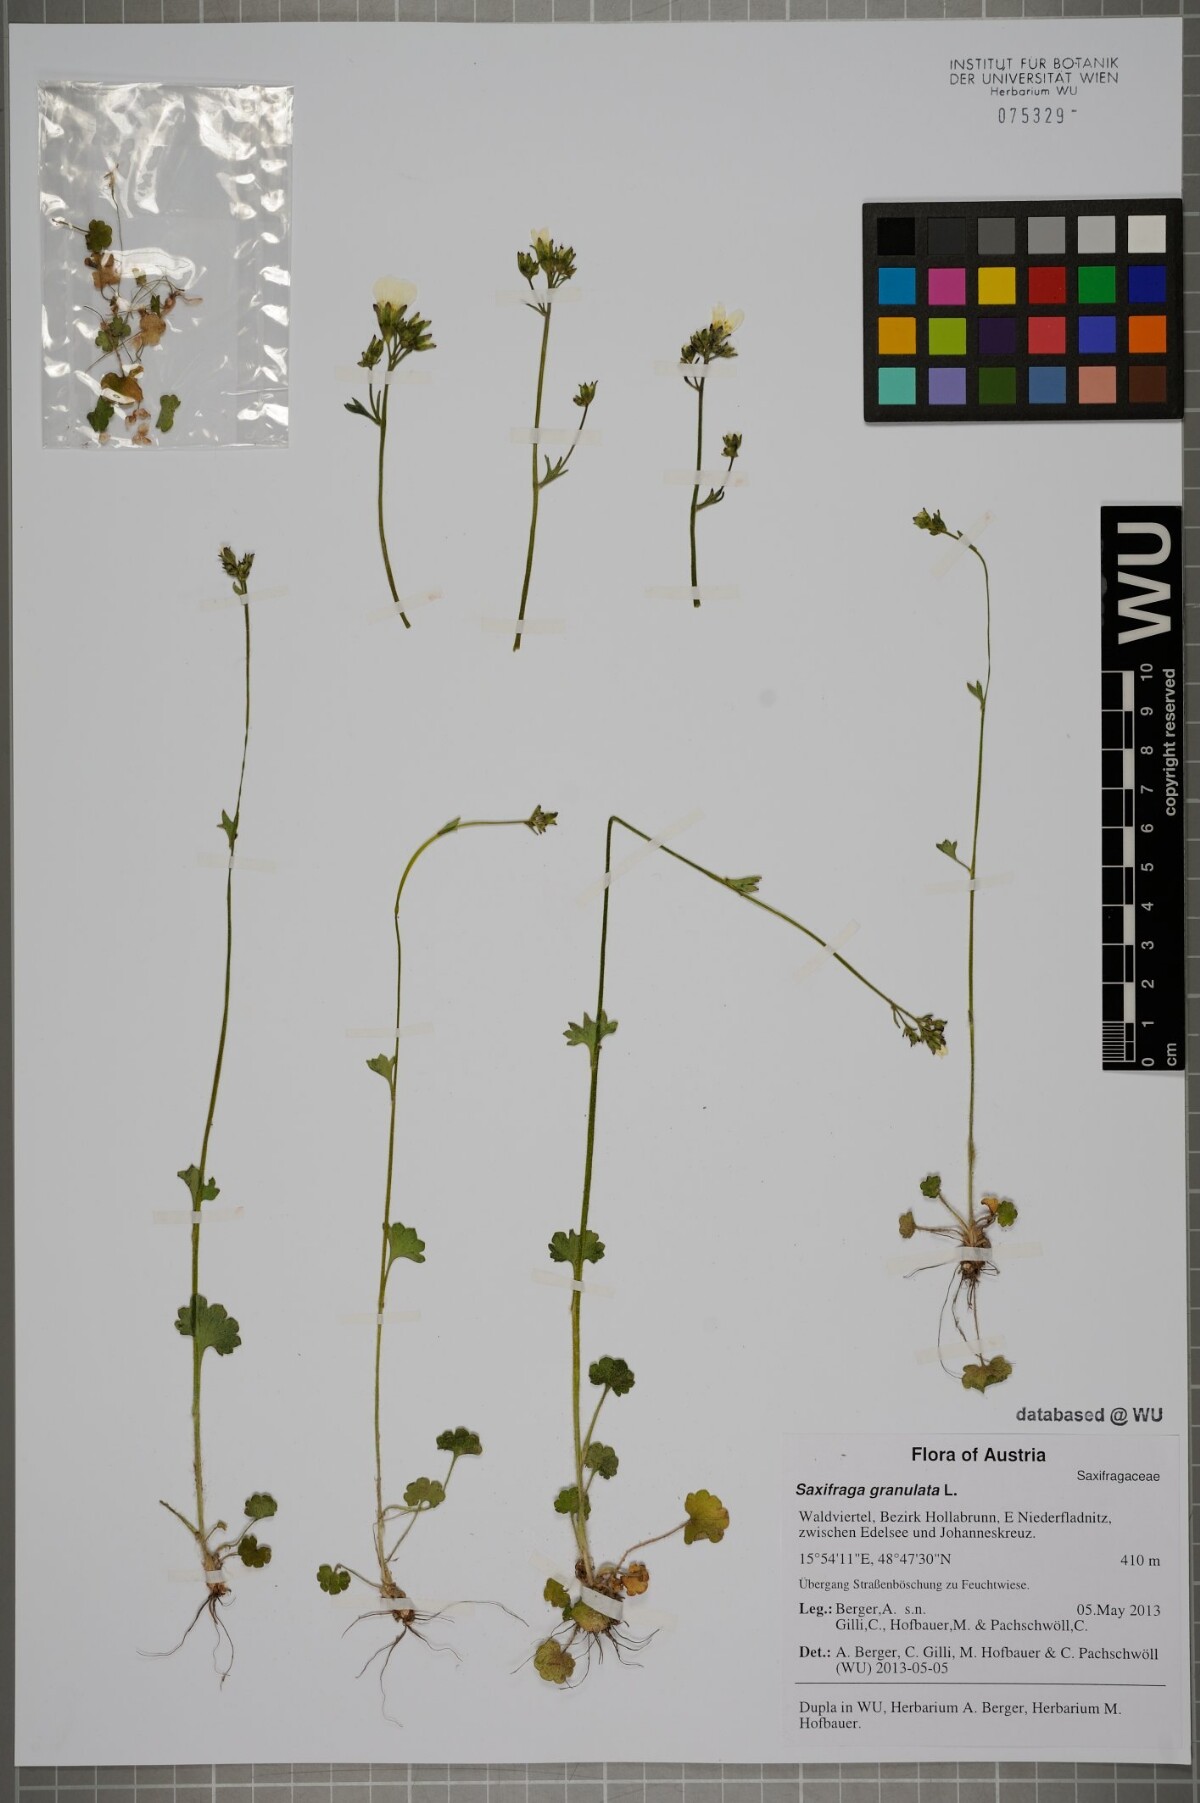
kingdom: Plantae
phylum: Tracheophyta
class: Magnoliopsida
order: Saxifragales
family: Saxifragaceae
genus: Saxifraga
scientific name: Saxifraga granulata
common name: Meadow saxifrage
